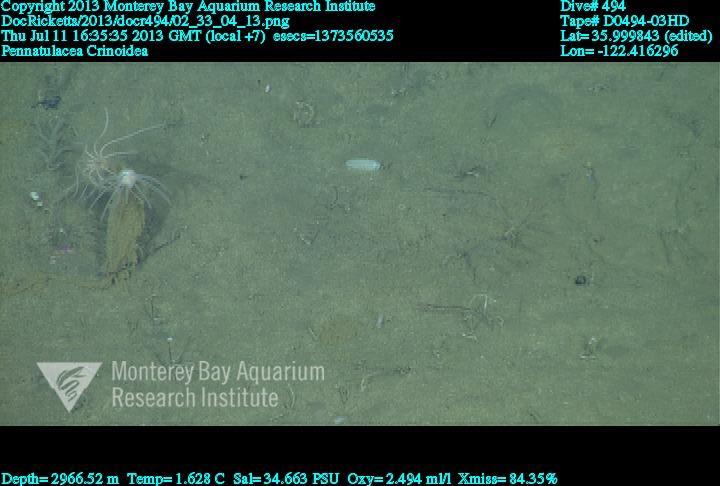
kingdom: Animalia
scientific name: Animalia
